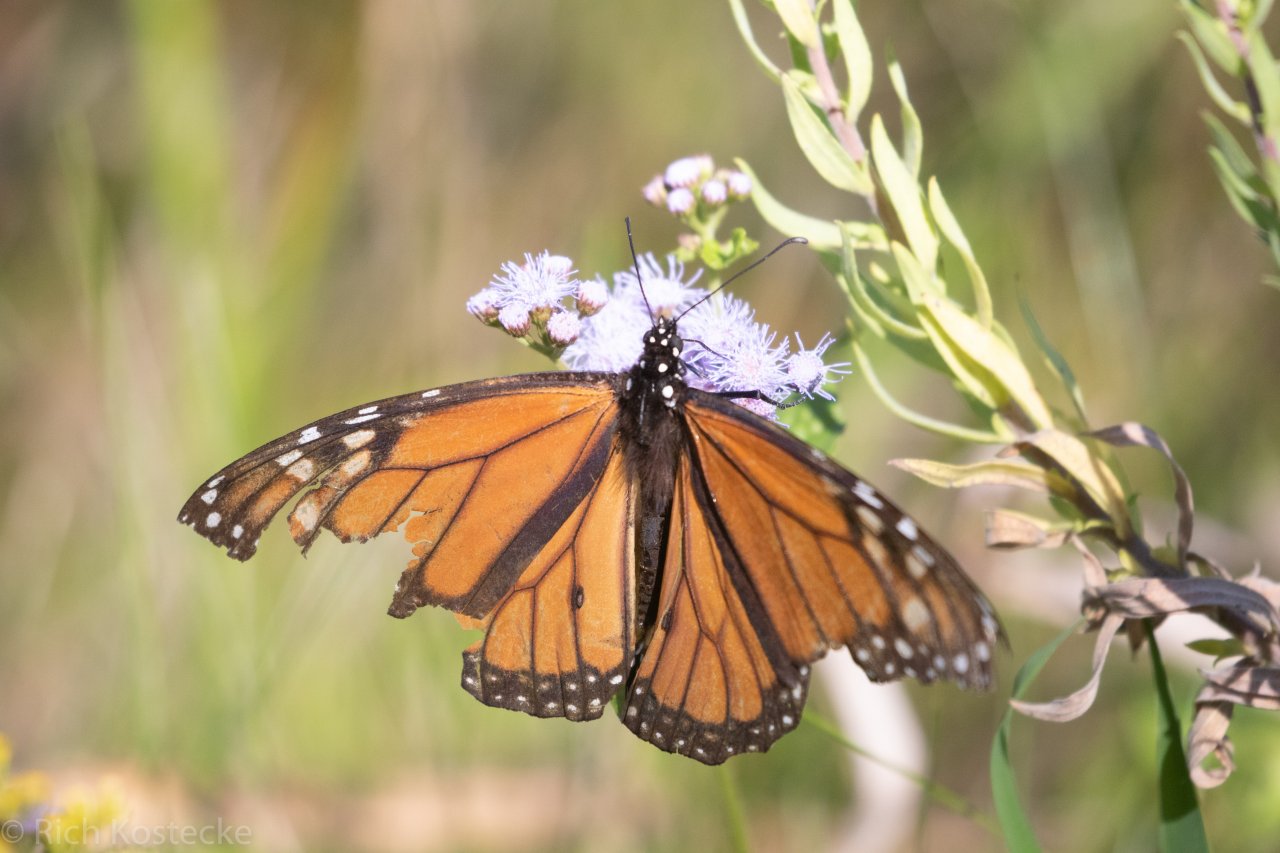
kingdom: Animalia
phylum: Arthropoda
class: Insecta
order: Lepidoptera
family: Nymphalidae
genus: Danaus
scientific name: Danaus plexippus
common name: Monarch
